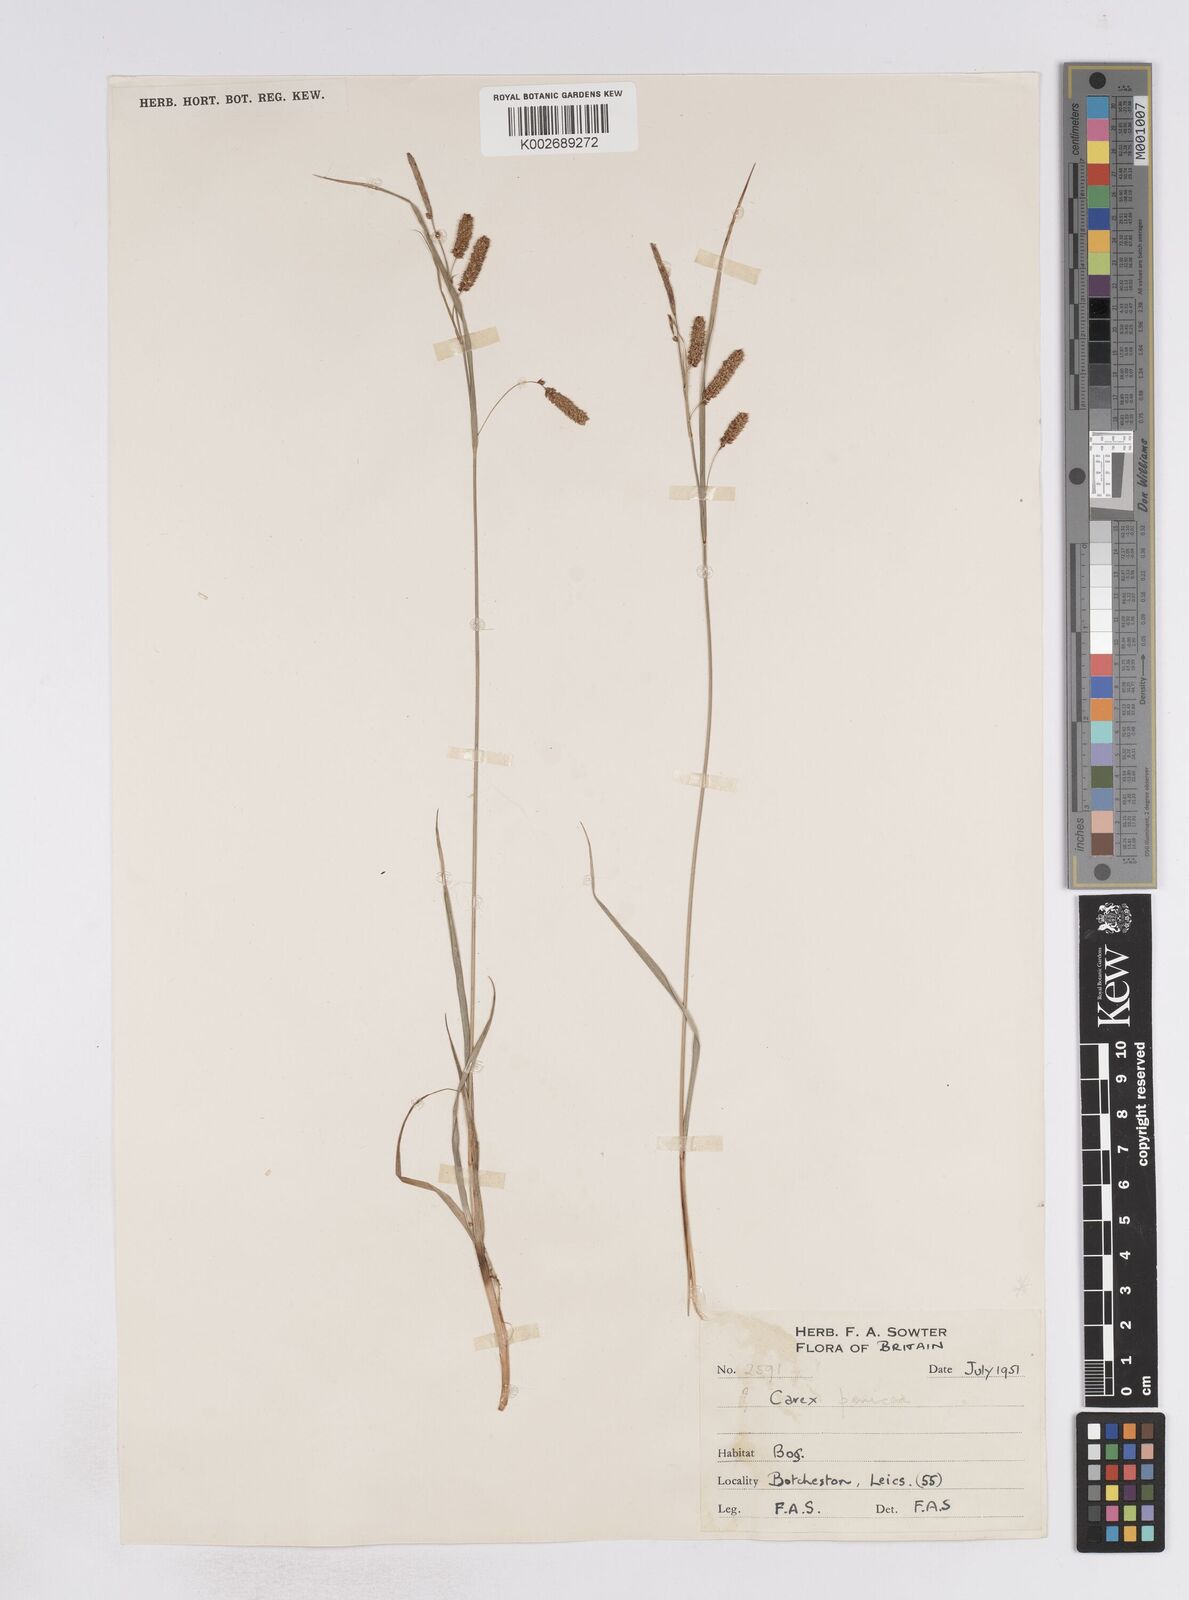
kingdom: Plantae
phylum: Tracheophyta
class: Liliopsida
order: Poales
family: Cyperaceae
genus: Carex
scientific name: Carex flacca
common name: Glaucous sedge
